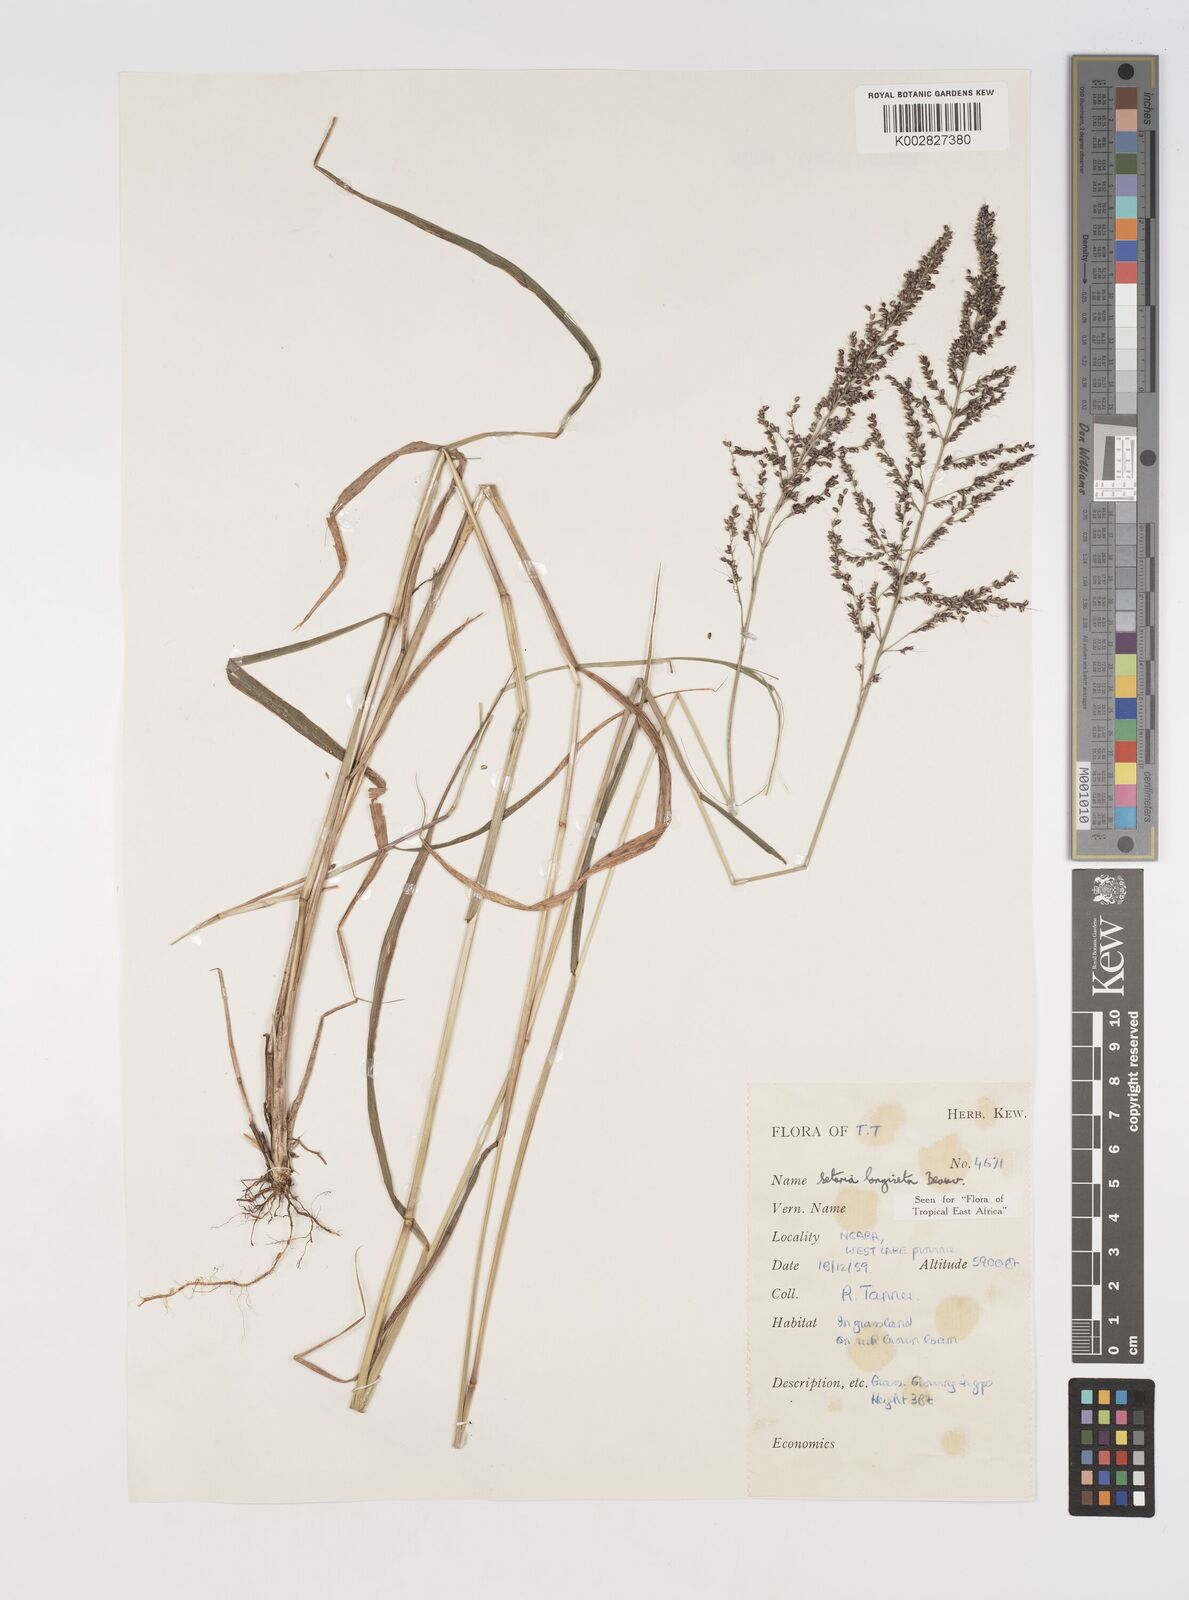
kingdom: Plantae
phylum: Tracheophyta
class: Liliopsida
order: Poales
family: Poaceae
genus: Setaria
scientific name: Setaria longiseta
